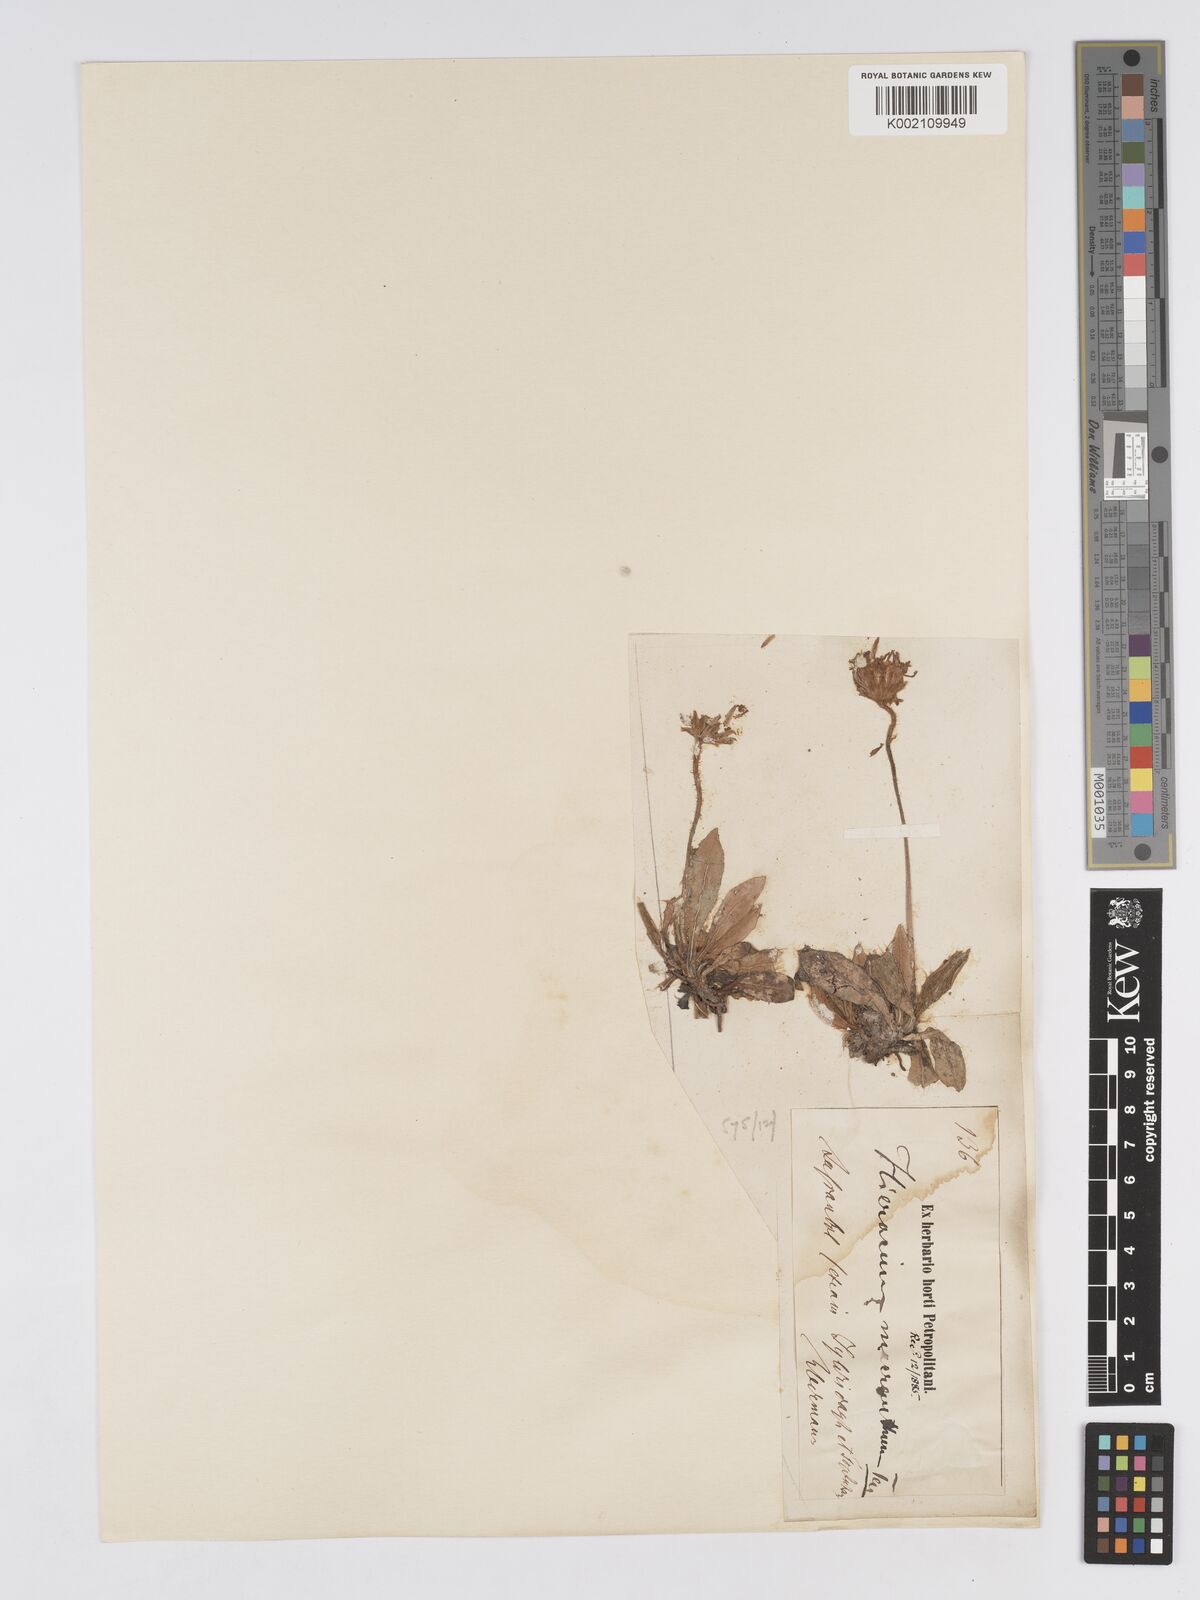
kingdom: Plantae
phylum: Tracheophyta
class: Magnoliopsida
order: Asterales
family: Asteraceae
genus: Pilosella
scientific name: Pilosella hoppeana
